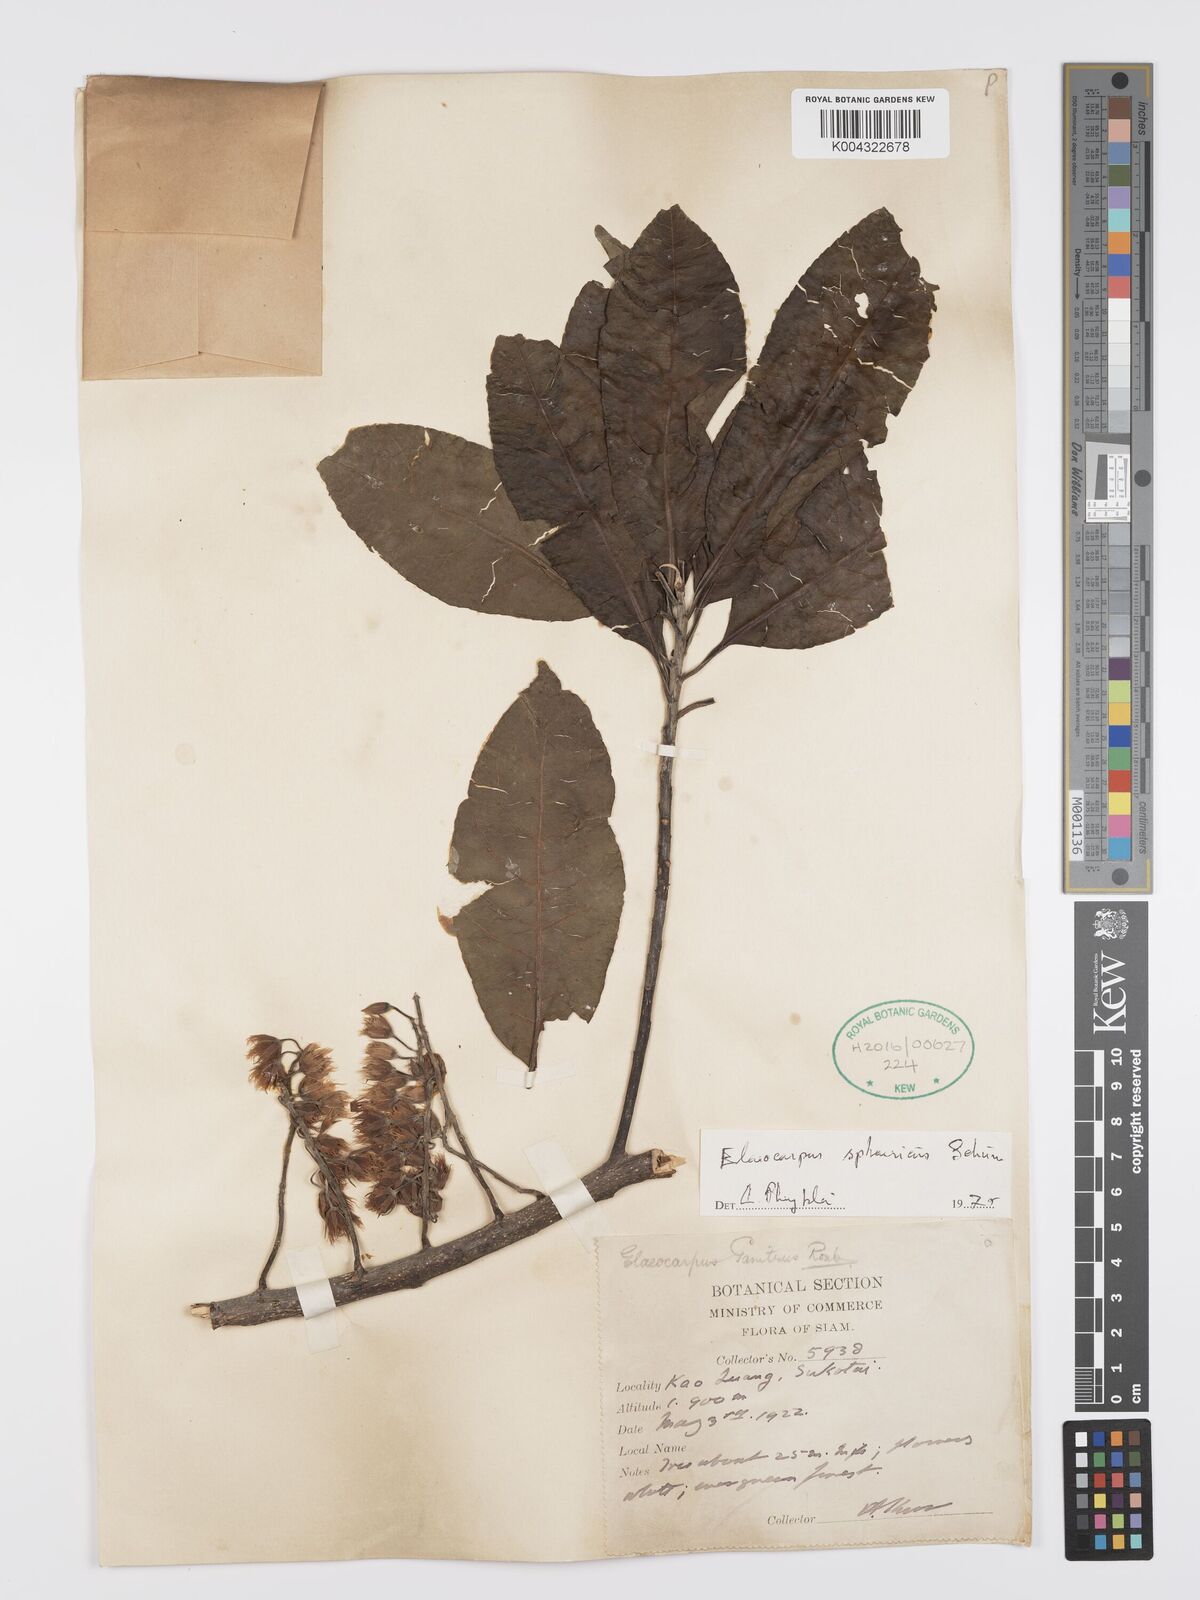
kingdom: Plantae
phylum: Tracheophyta
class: Magnoliopsida
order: Oxalidales
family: Elaeocarpaceae
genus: Elaeocarpus
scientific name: Elaeocarpus
